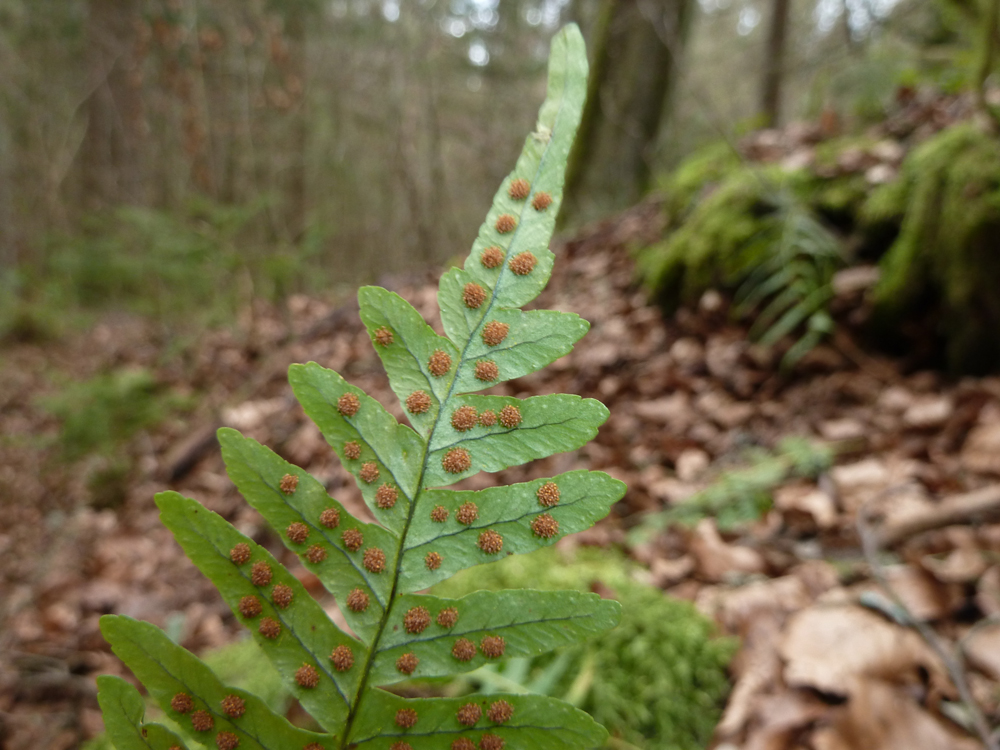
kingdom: Plantae
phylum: Tracheophyta
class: Polypodiopsida
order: Polypodiales
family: Polypodiaceae
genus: Polypodium
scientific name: Polypodium vulgare
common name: Common polypody
